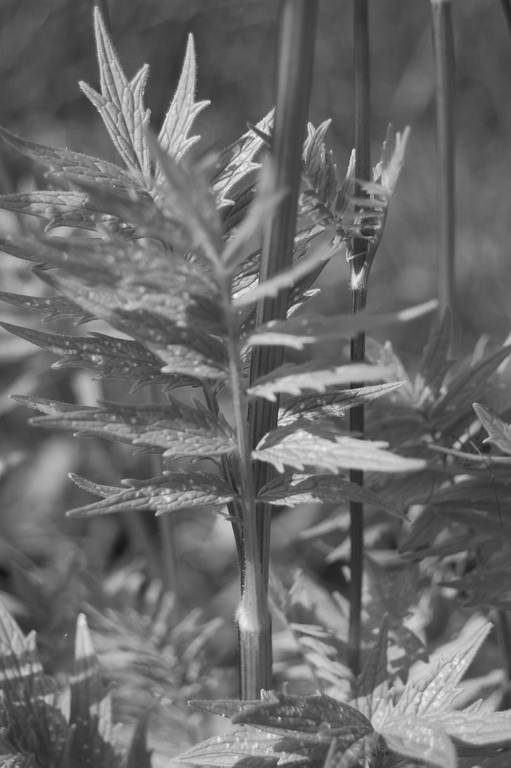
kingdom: Plantae
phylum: Tracheophyta
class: Magnoliopsida
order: Dipsacales
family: Caprifoliaceae
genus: Valeriana
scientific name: Valeriana officinalis
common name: Common valerian
